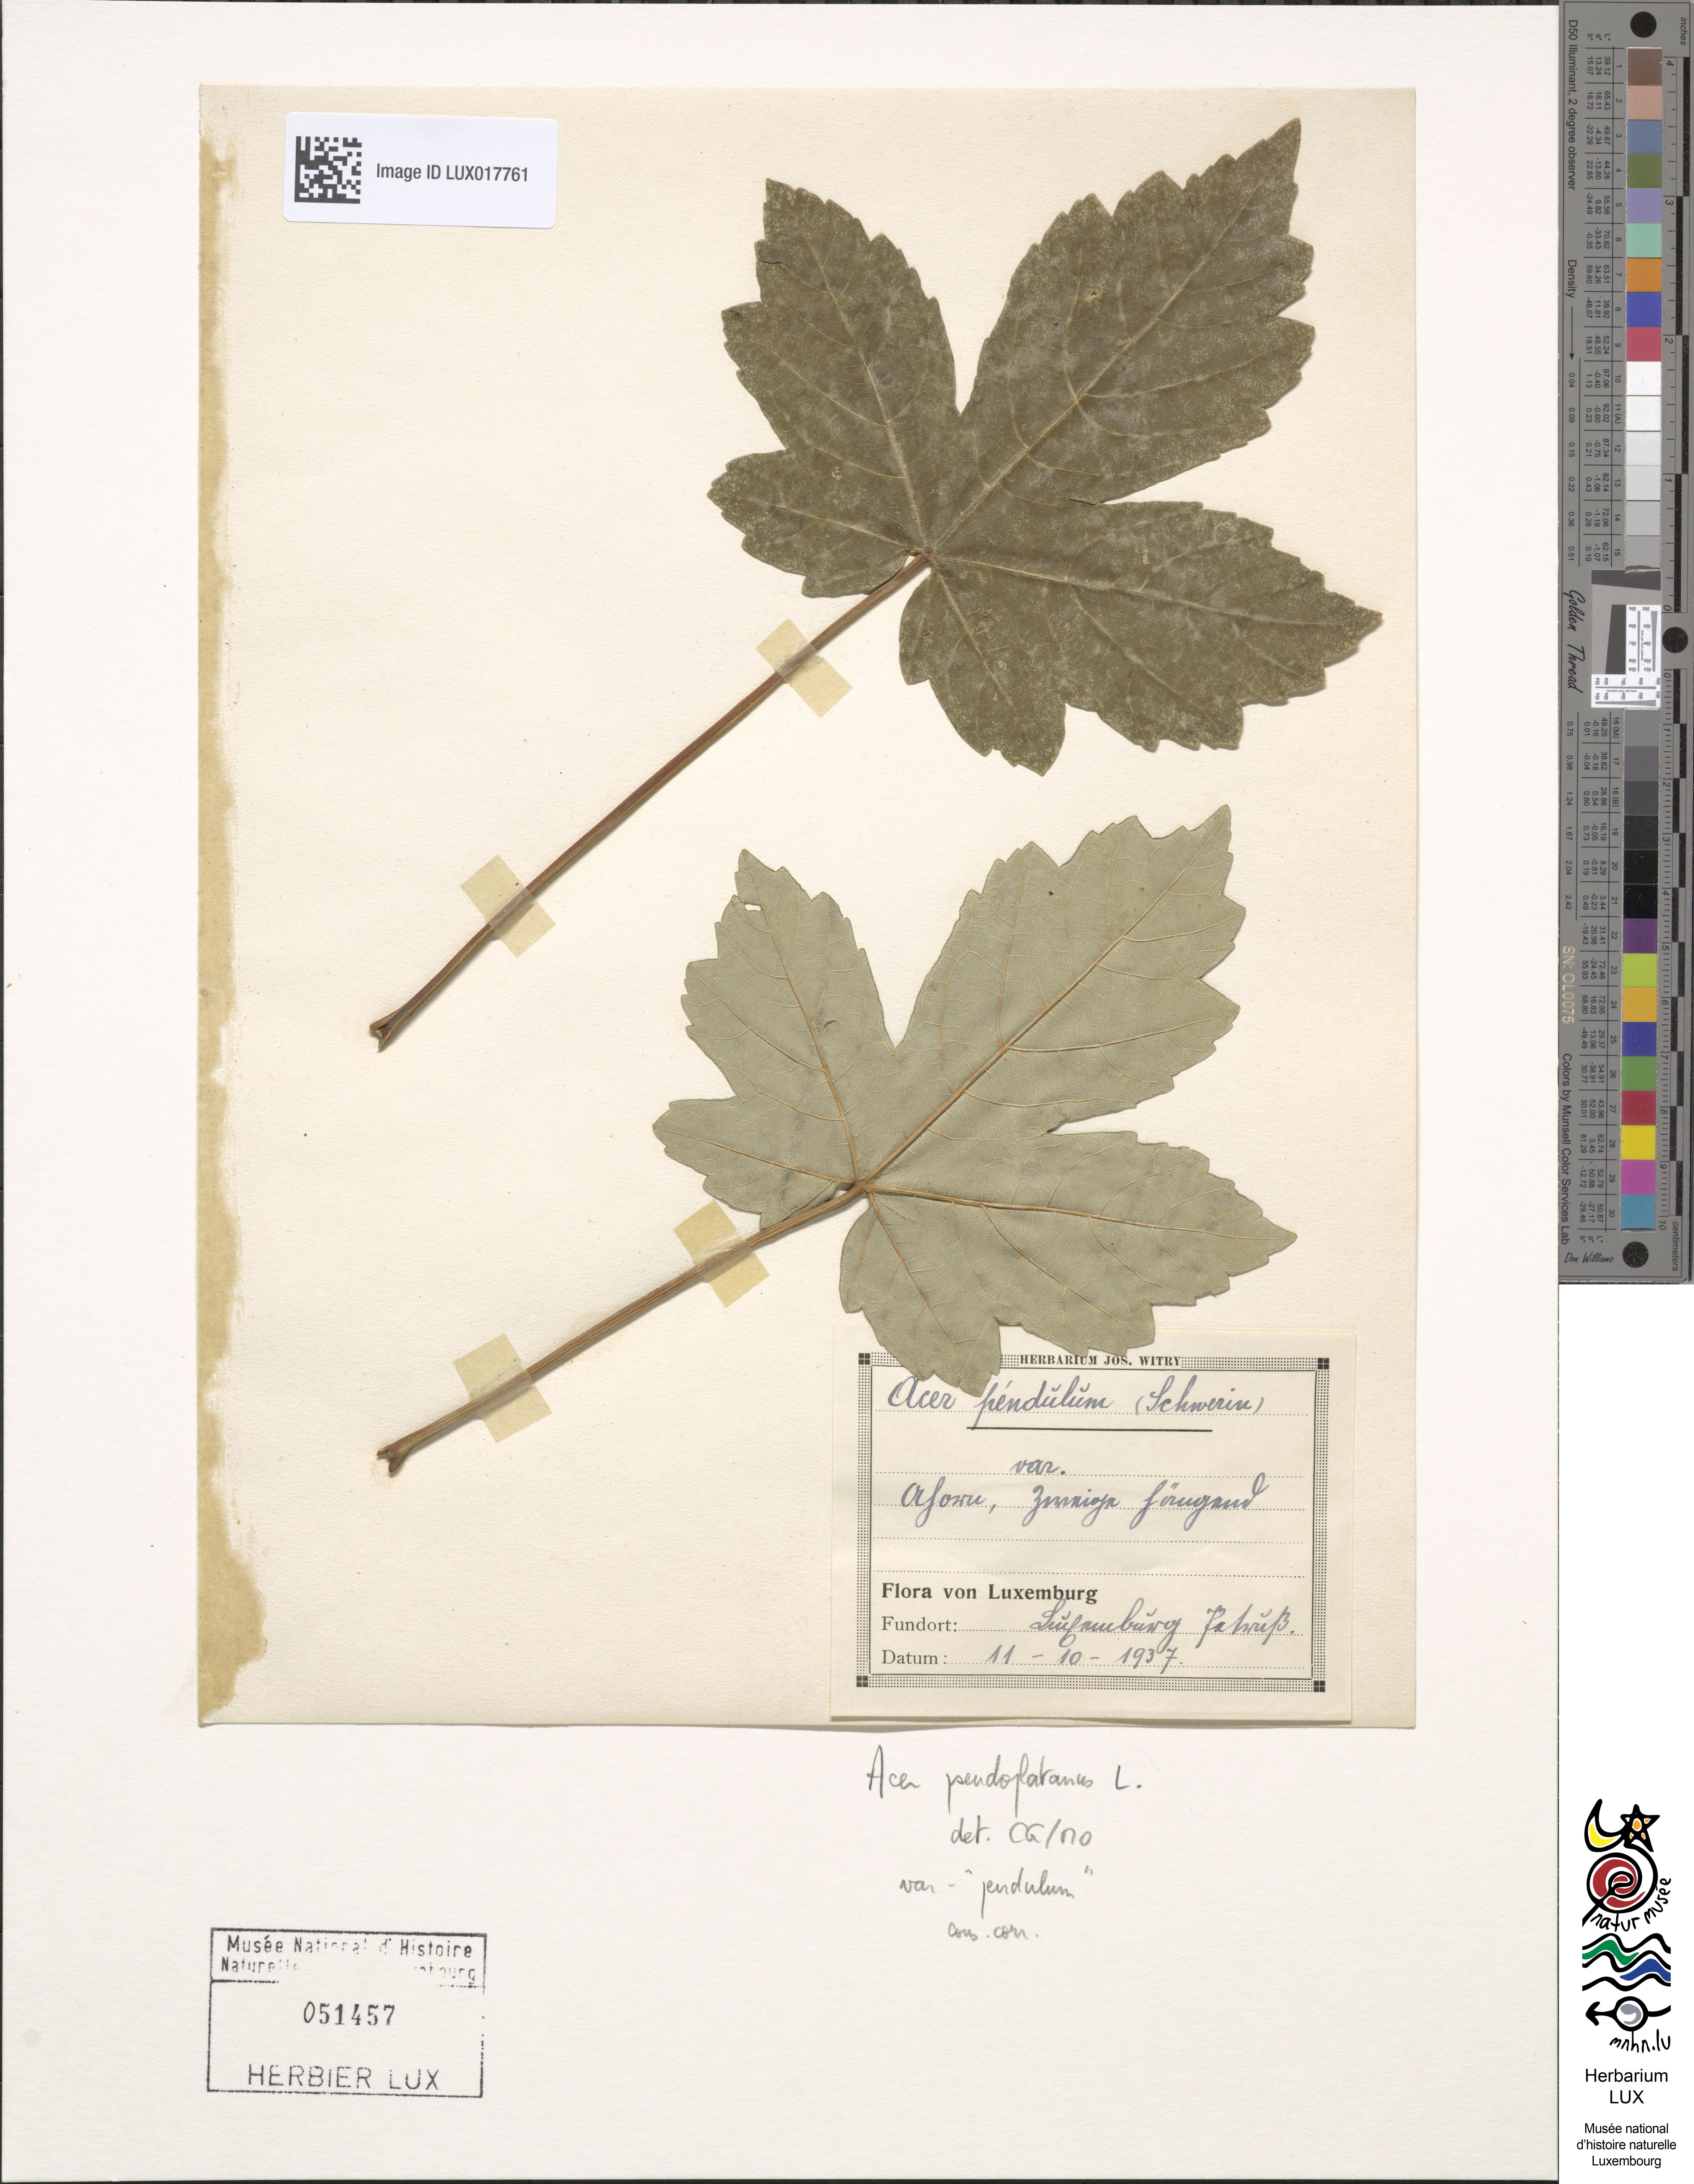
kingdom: Plantae
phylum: Tracheophyta
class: Magnoliopsida
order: Sapindales
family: Sapindaceae
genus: Acer
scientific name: Acer pseudoplatanus
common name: Sycamore
